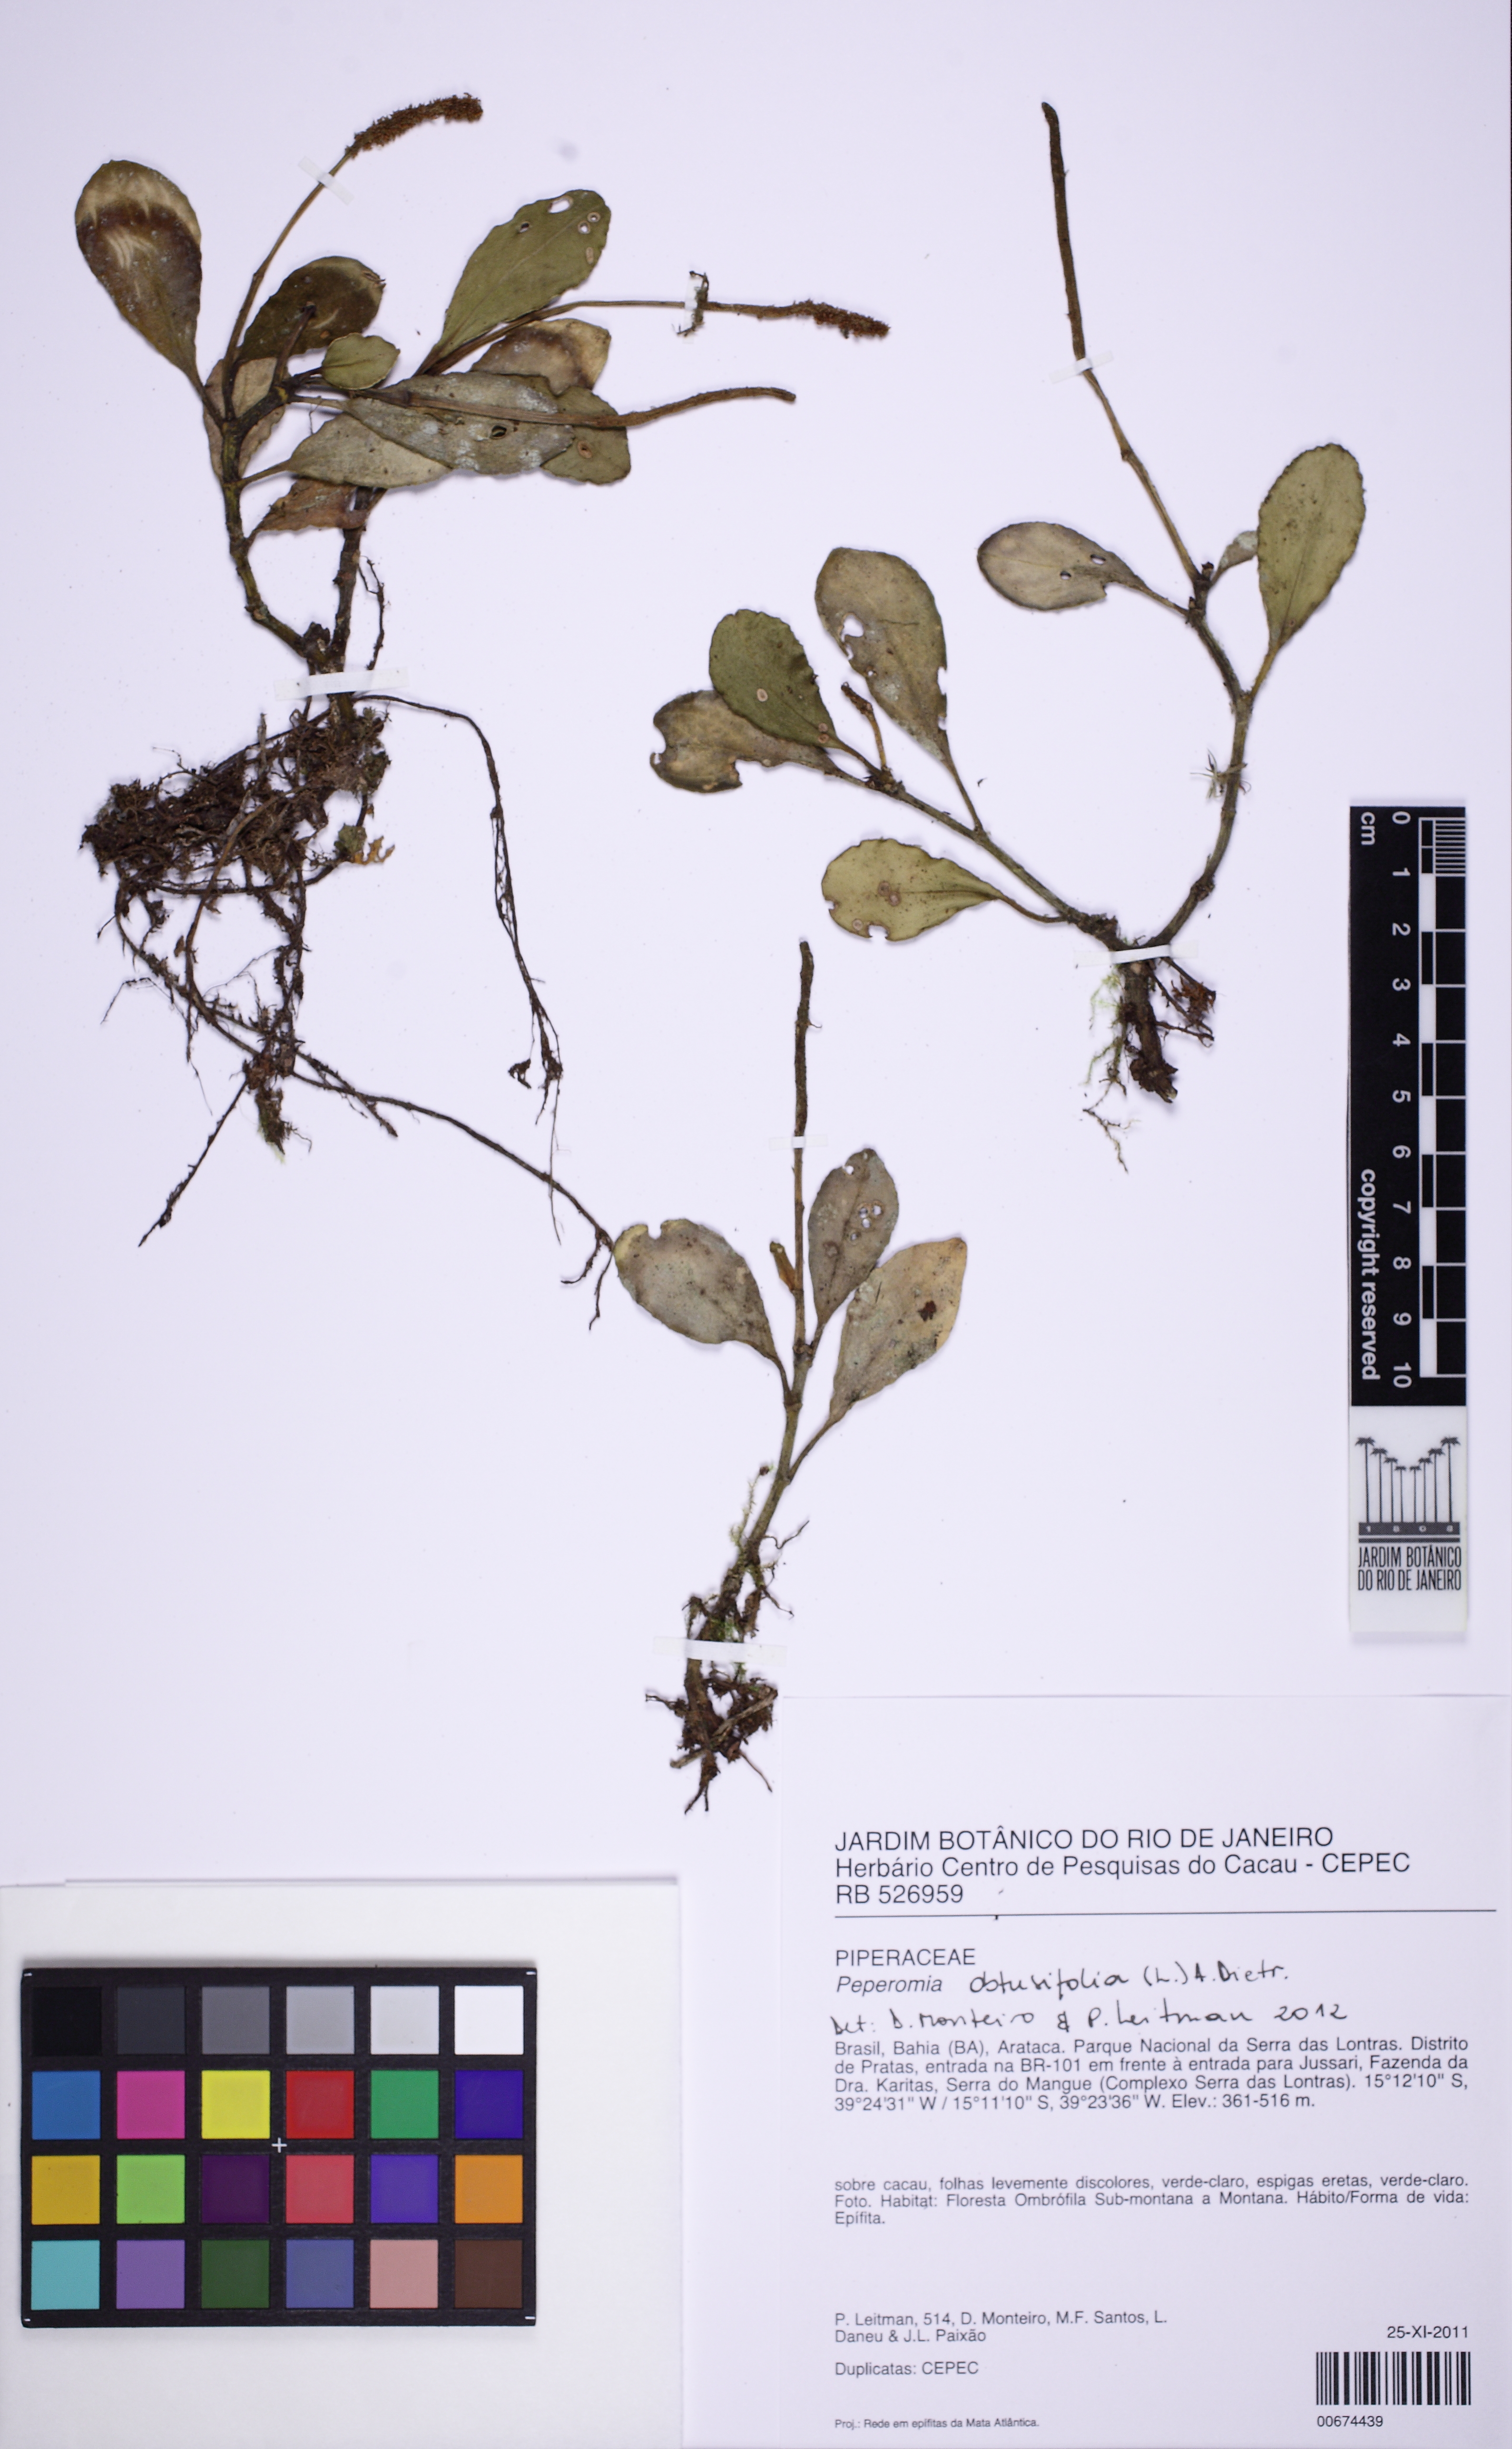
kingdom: Plantae
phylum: Tracheophyta
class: Magnoliopsida
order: Piperales
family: Piperaceae
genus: Peperomia
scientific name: Peperomia obtusifolia
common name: Baby rubberplant
